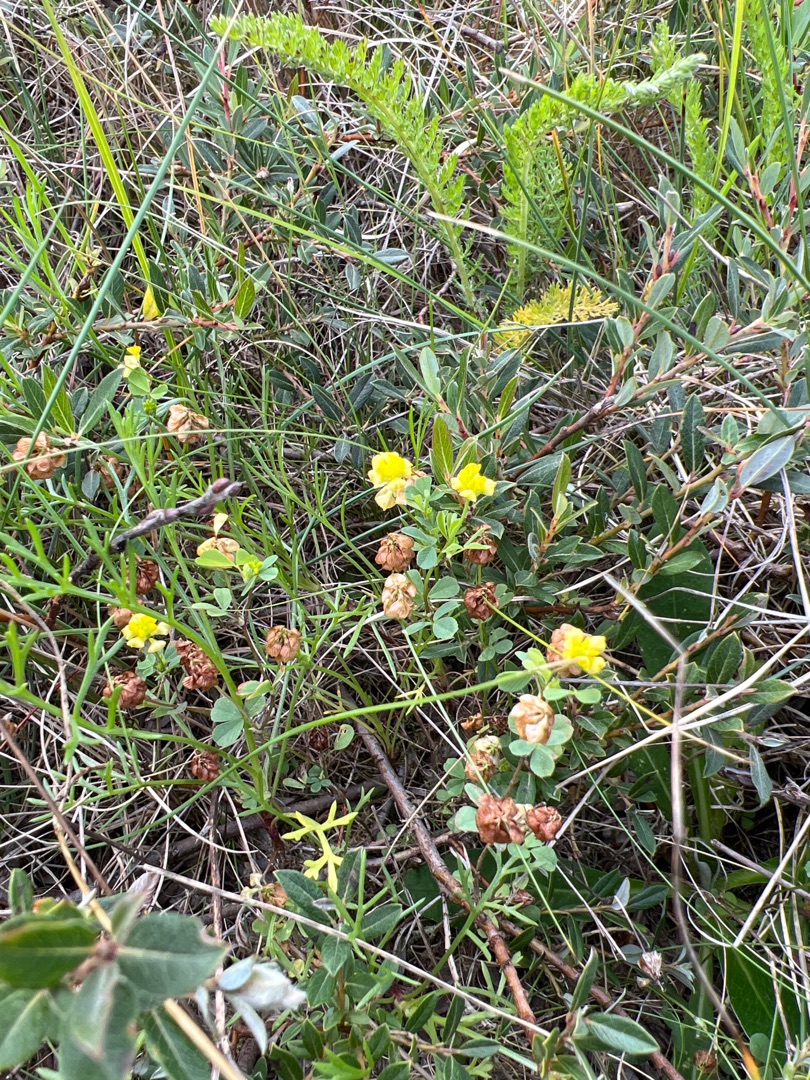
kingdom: Plantae
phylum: Tracheophyta
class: Magnoliopsida
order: Fabales
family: Fabaceae
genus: Trifolium
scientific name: Trifolium campestre
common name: Gul kløver
